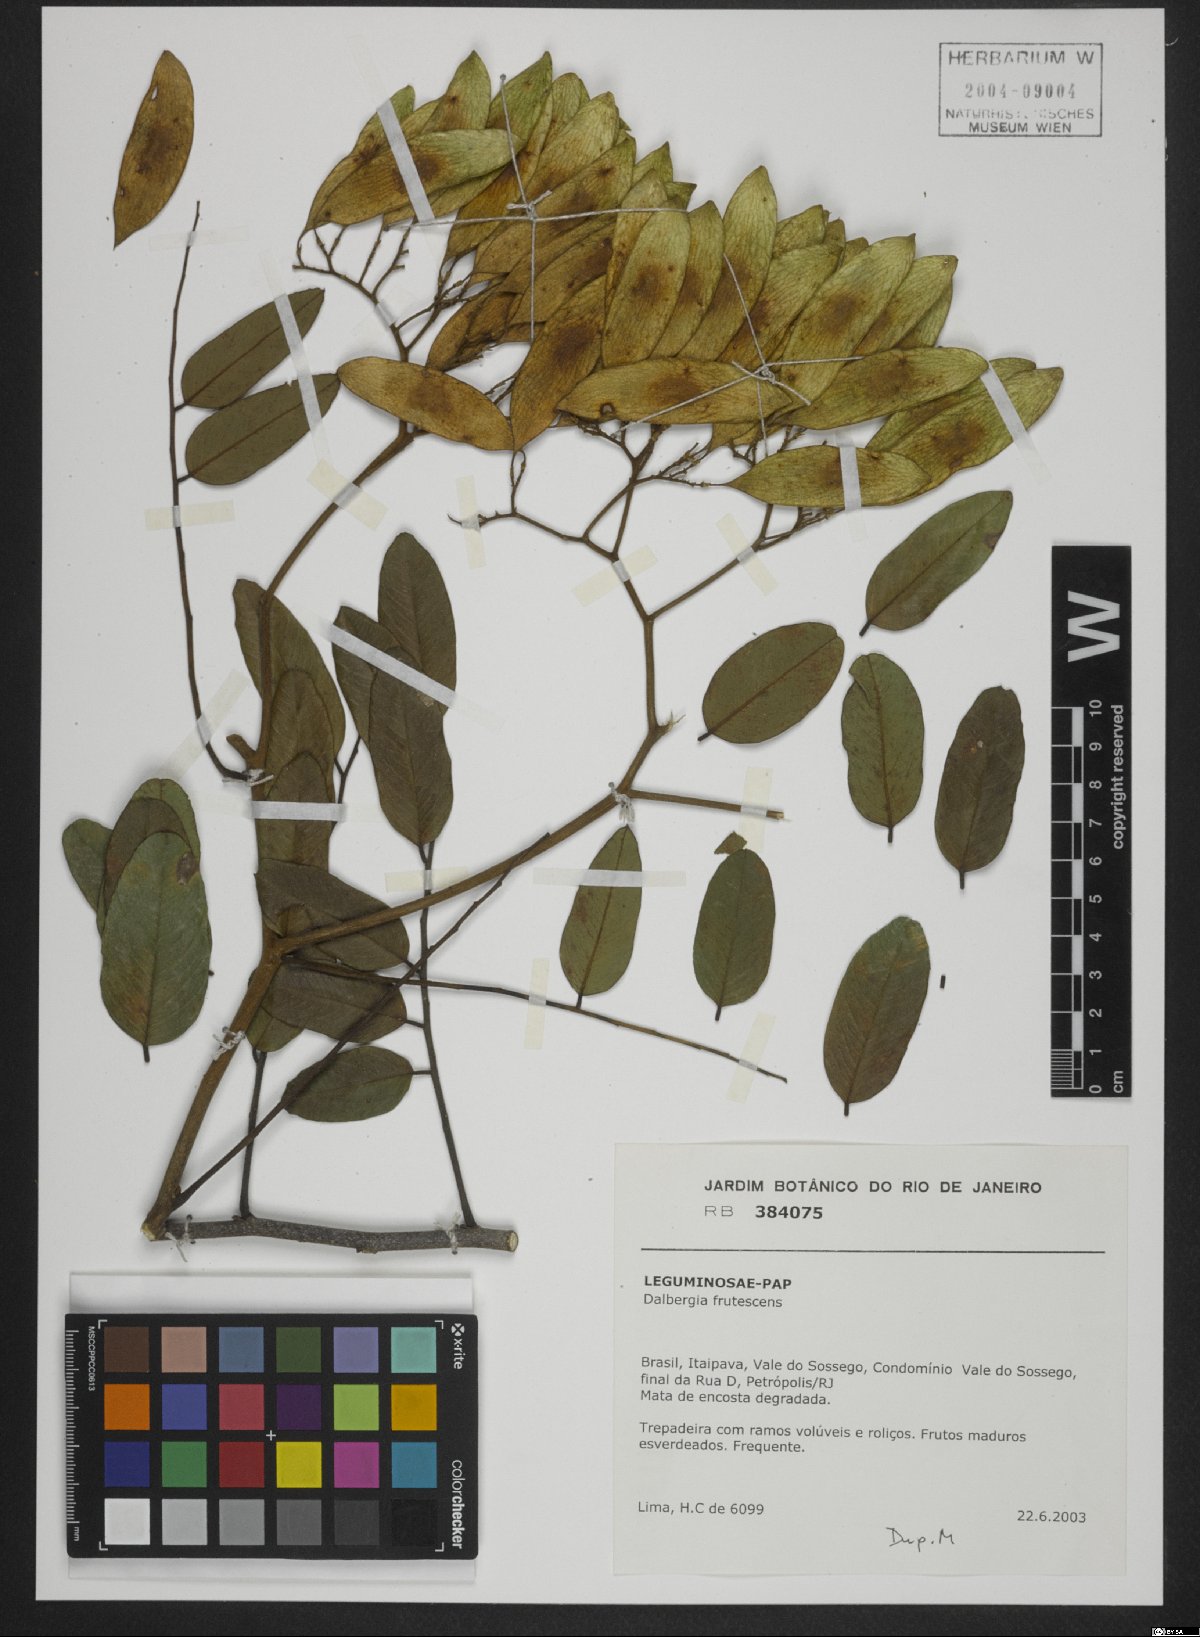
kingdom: Plantae
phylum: Tracheophyta
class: Magnoliopsida
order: Fabales
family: Fabaceae
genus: Dalbergia
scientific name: Dalbergia frutescens
